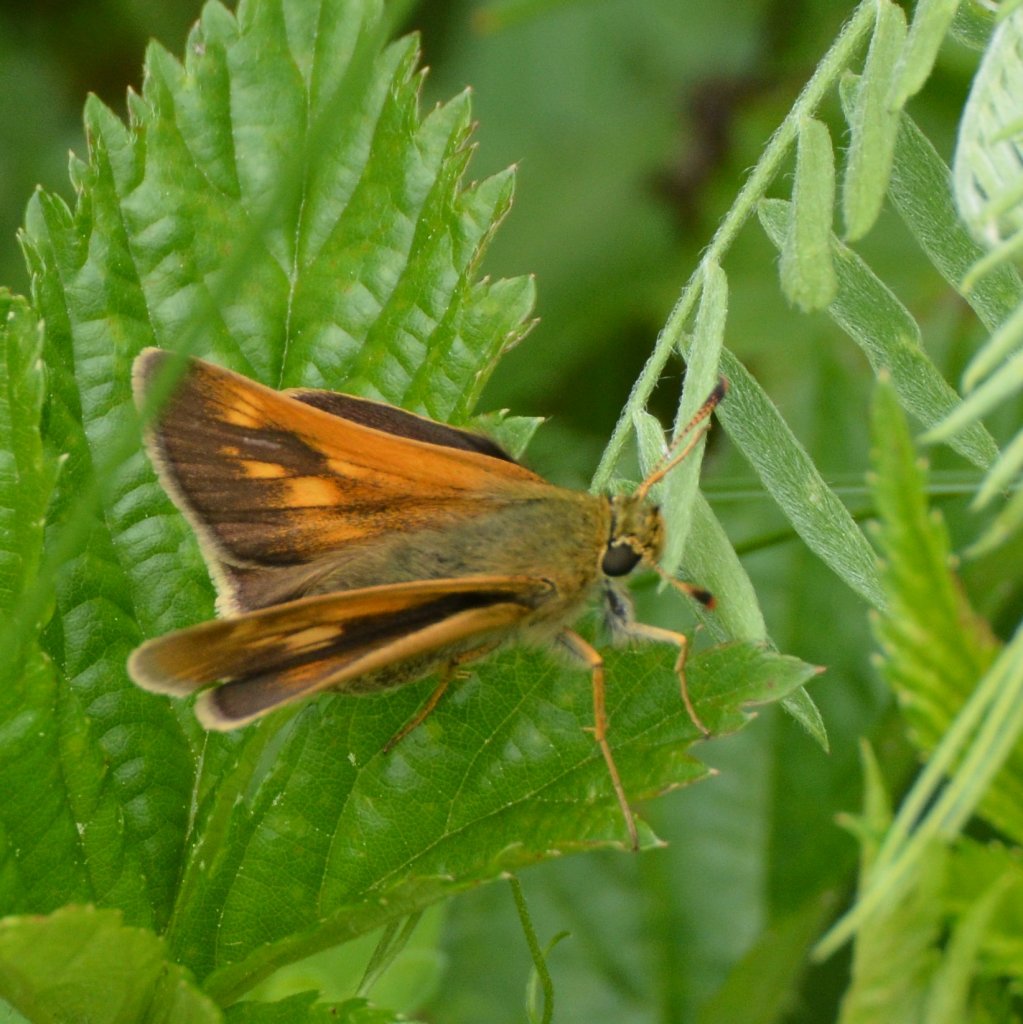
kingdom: Animalia
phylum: Arthropoda
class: Insecta
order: Lepidoptera
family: Hesperiidae
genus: Lon
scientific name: Lon hobomok
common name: Hobomok Skipper
